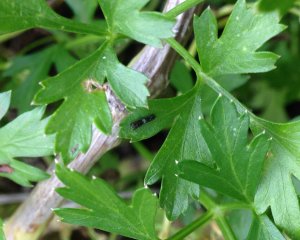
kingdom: Animalia
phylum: Arthropoda
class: Insecta
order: Lepidoptera
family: Papilionidae
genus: Papilio
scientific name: Papilio polyxenes
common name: Black Swallowtail
